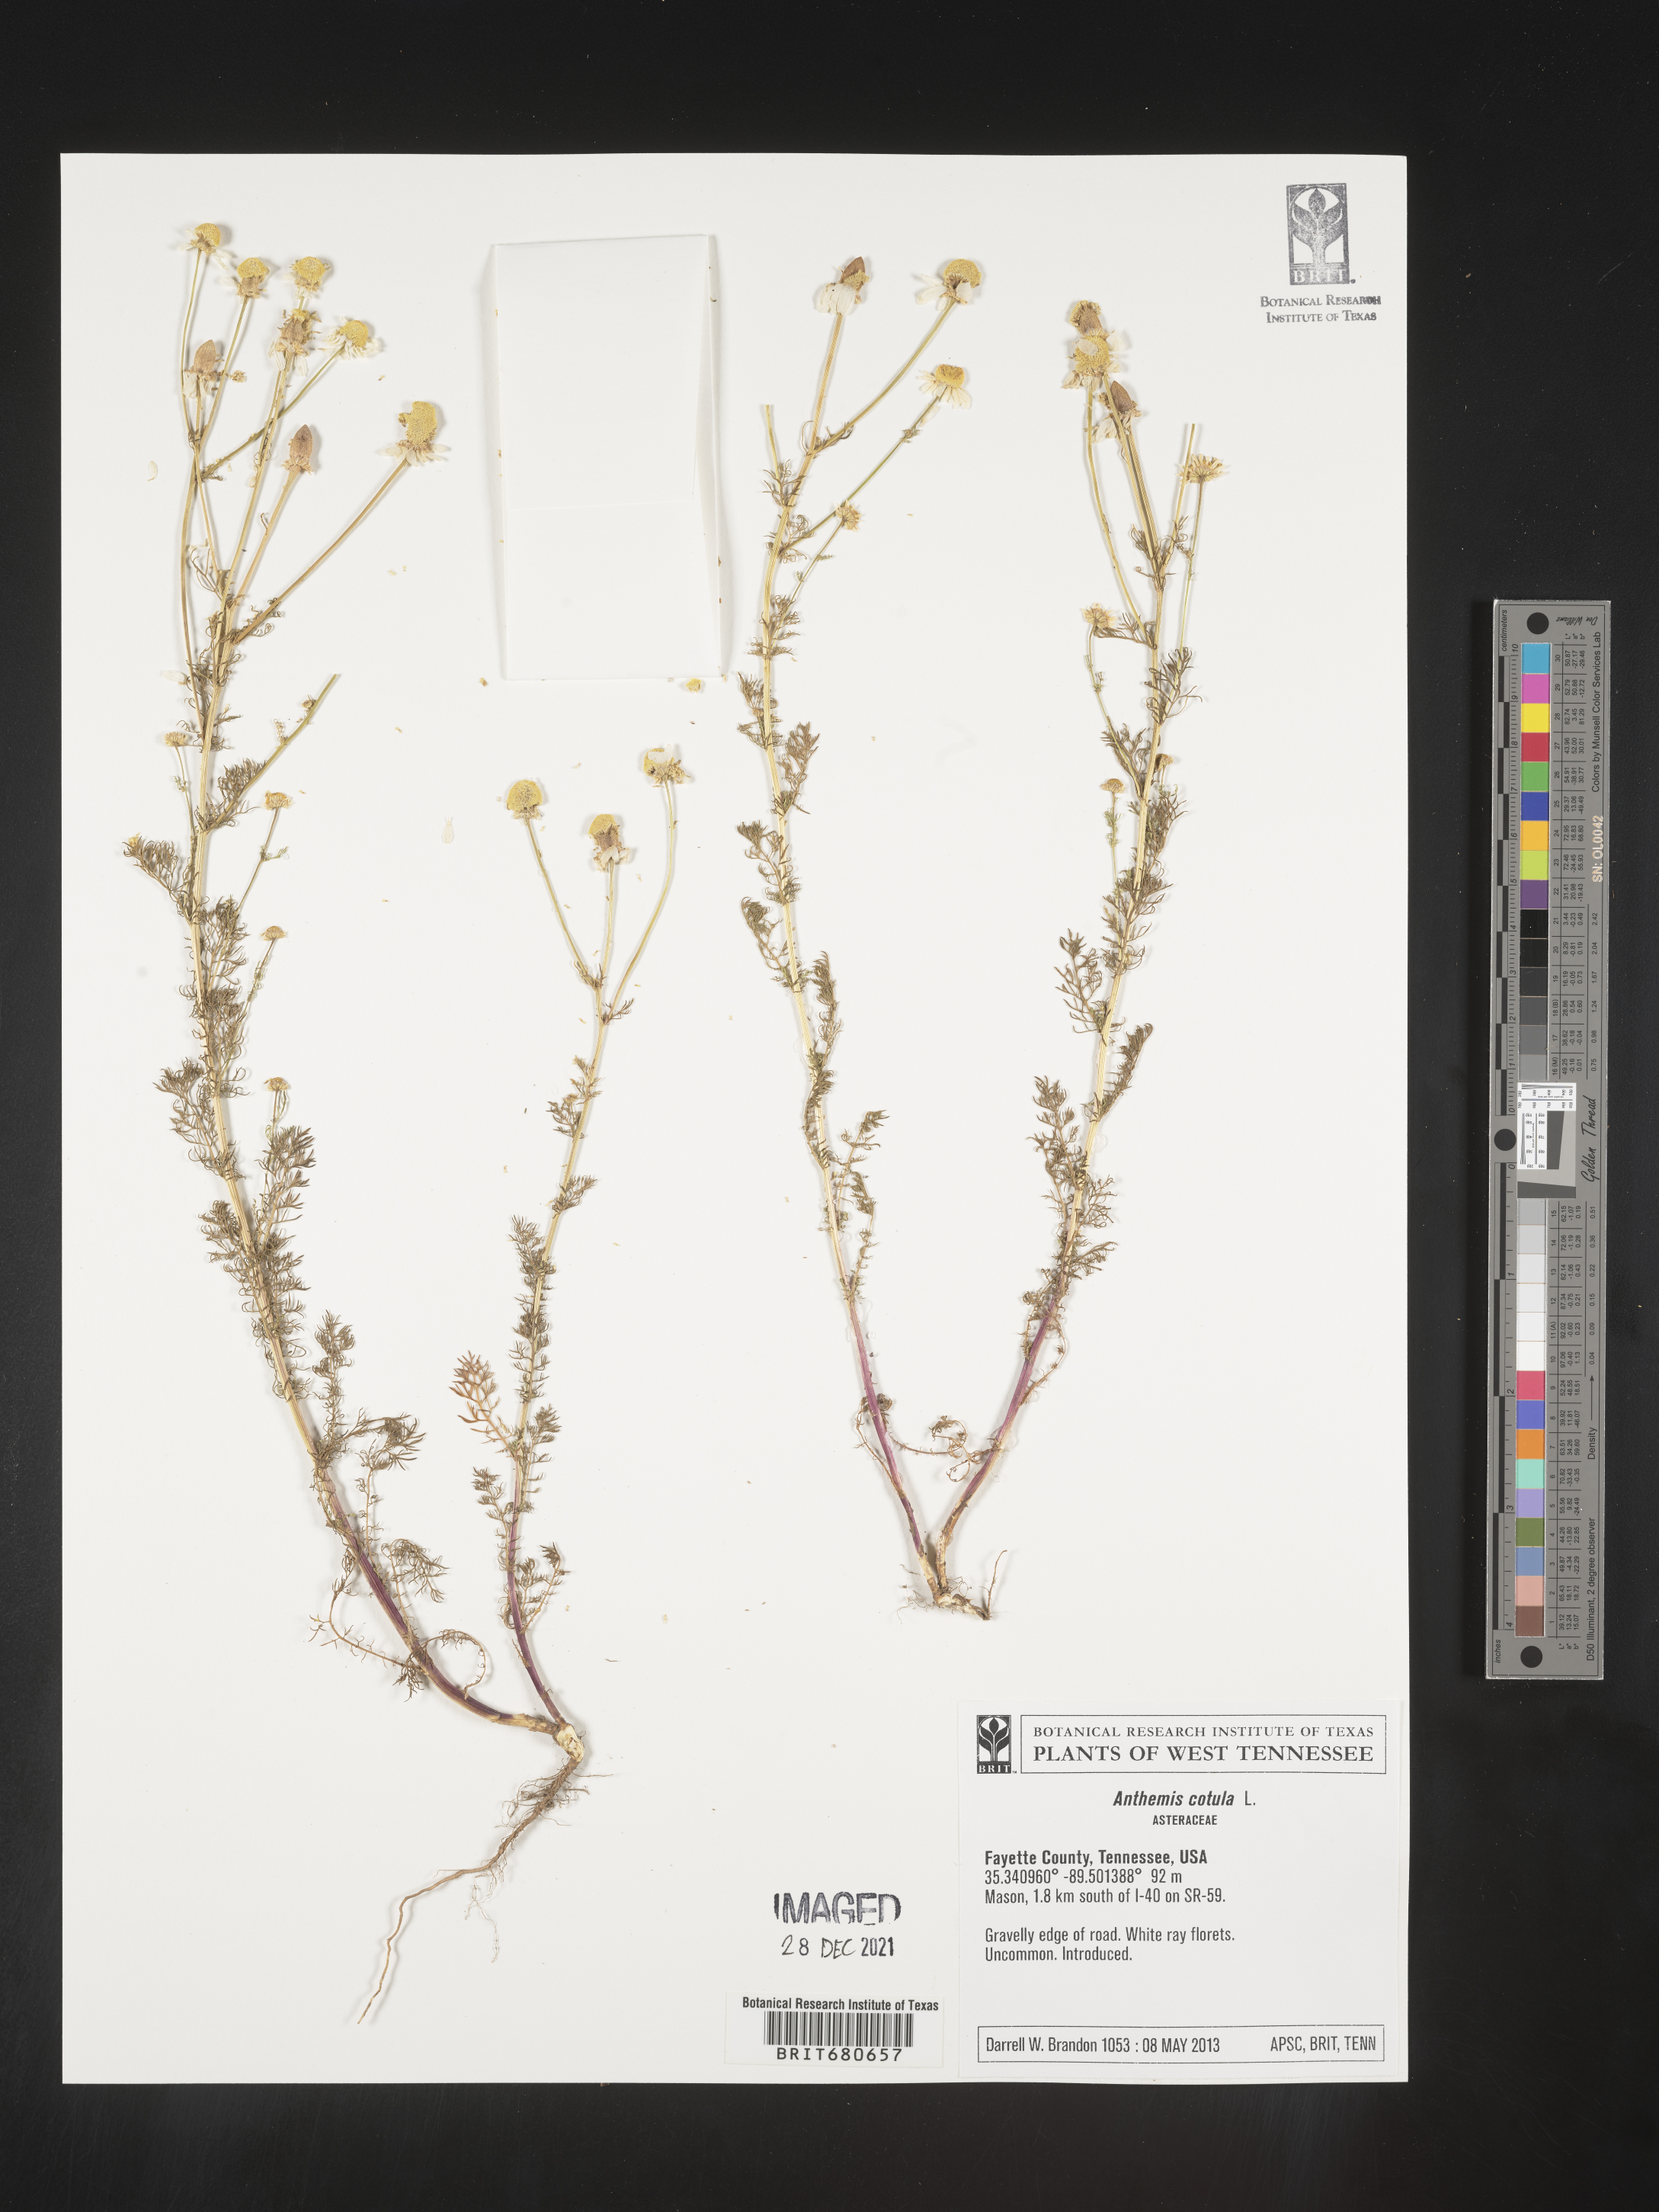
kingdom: Plantae
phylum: Tracheophyta
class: Magnoliopsida
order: Asterales
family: Asteraceae
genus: Anthemis
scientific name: Anthemis cotula
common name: Stinking chamomile
